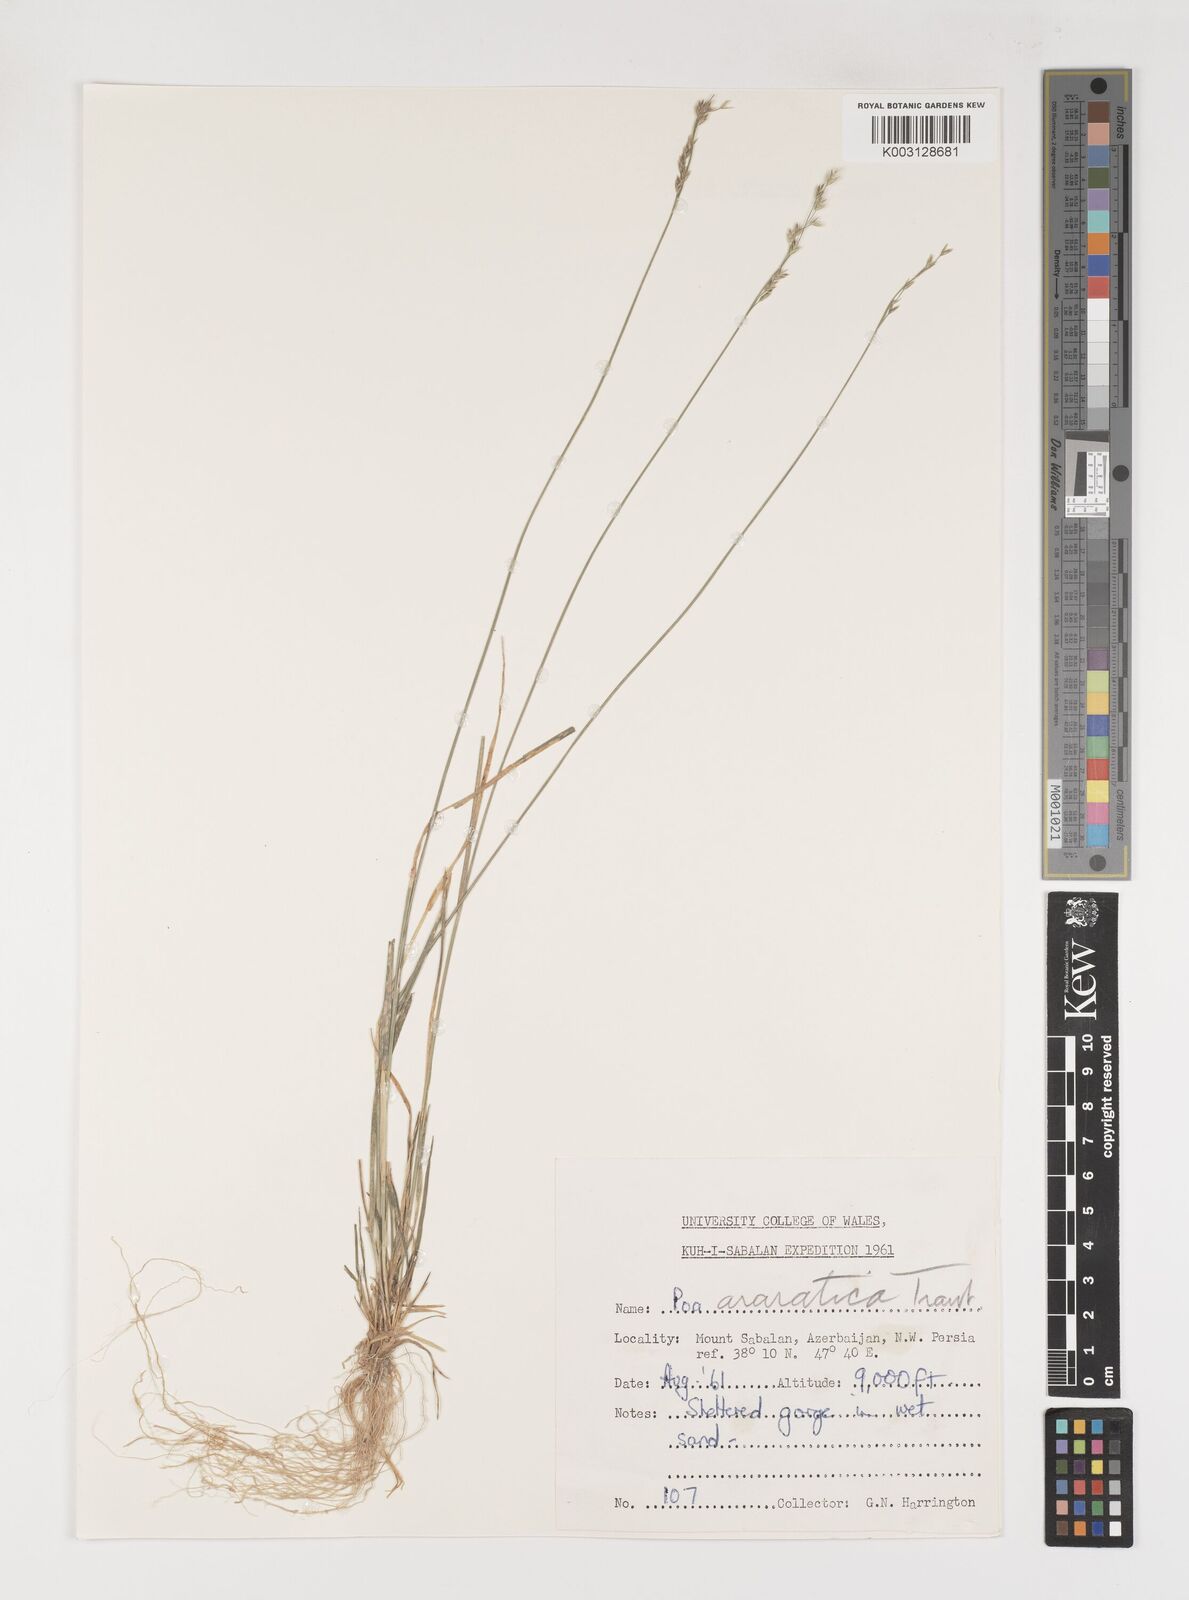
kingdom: Plantae
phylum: Tracheophyta
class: Liliopsida
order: Poales
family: Poaceae
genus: Poa
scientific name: Poa araratica
